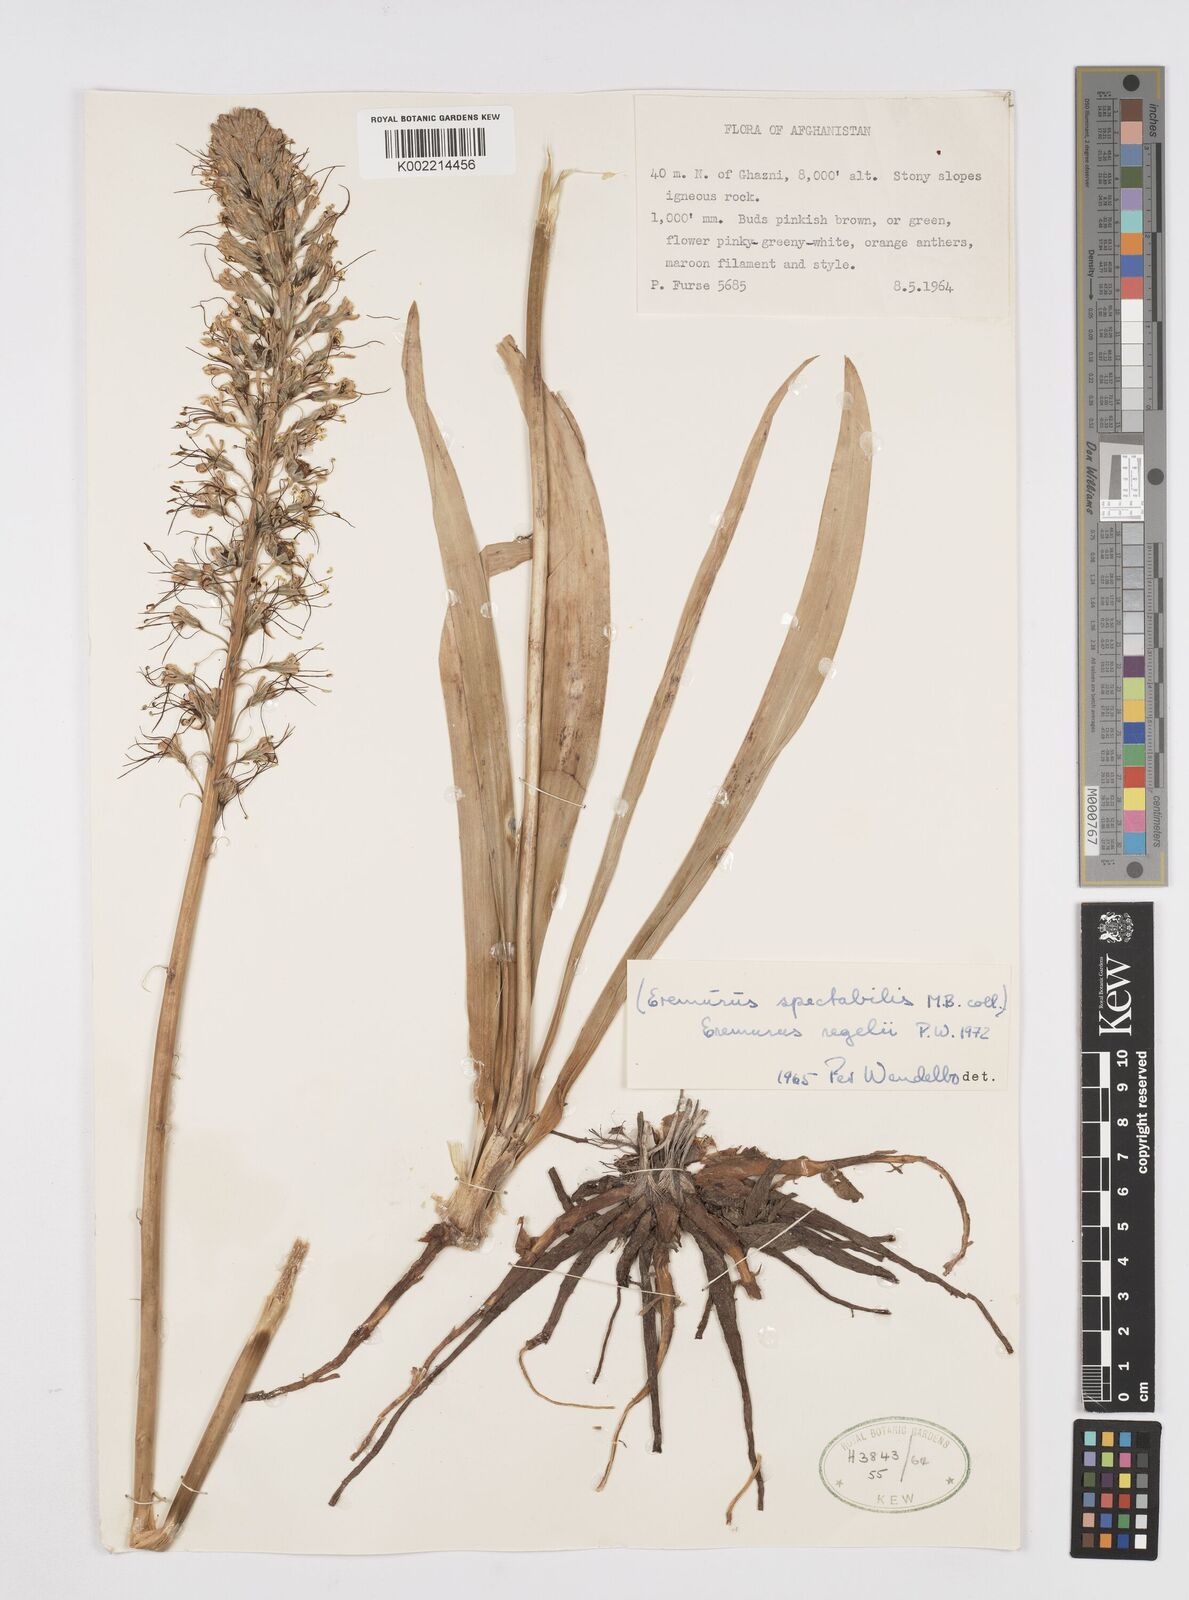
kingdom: Plantae
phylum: Tracheophyta
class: Liliopsida
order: Asparagales
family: Asphodelaceae
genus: Eremurus
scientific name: Eremurus regelii
